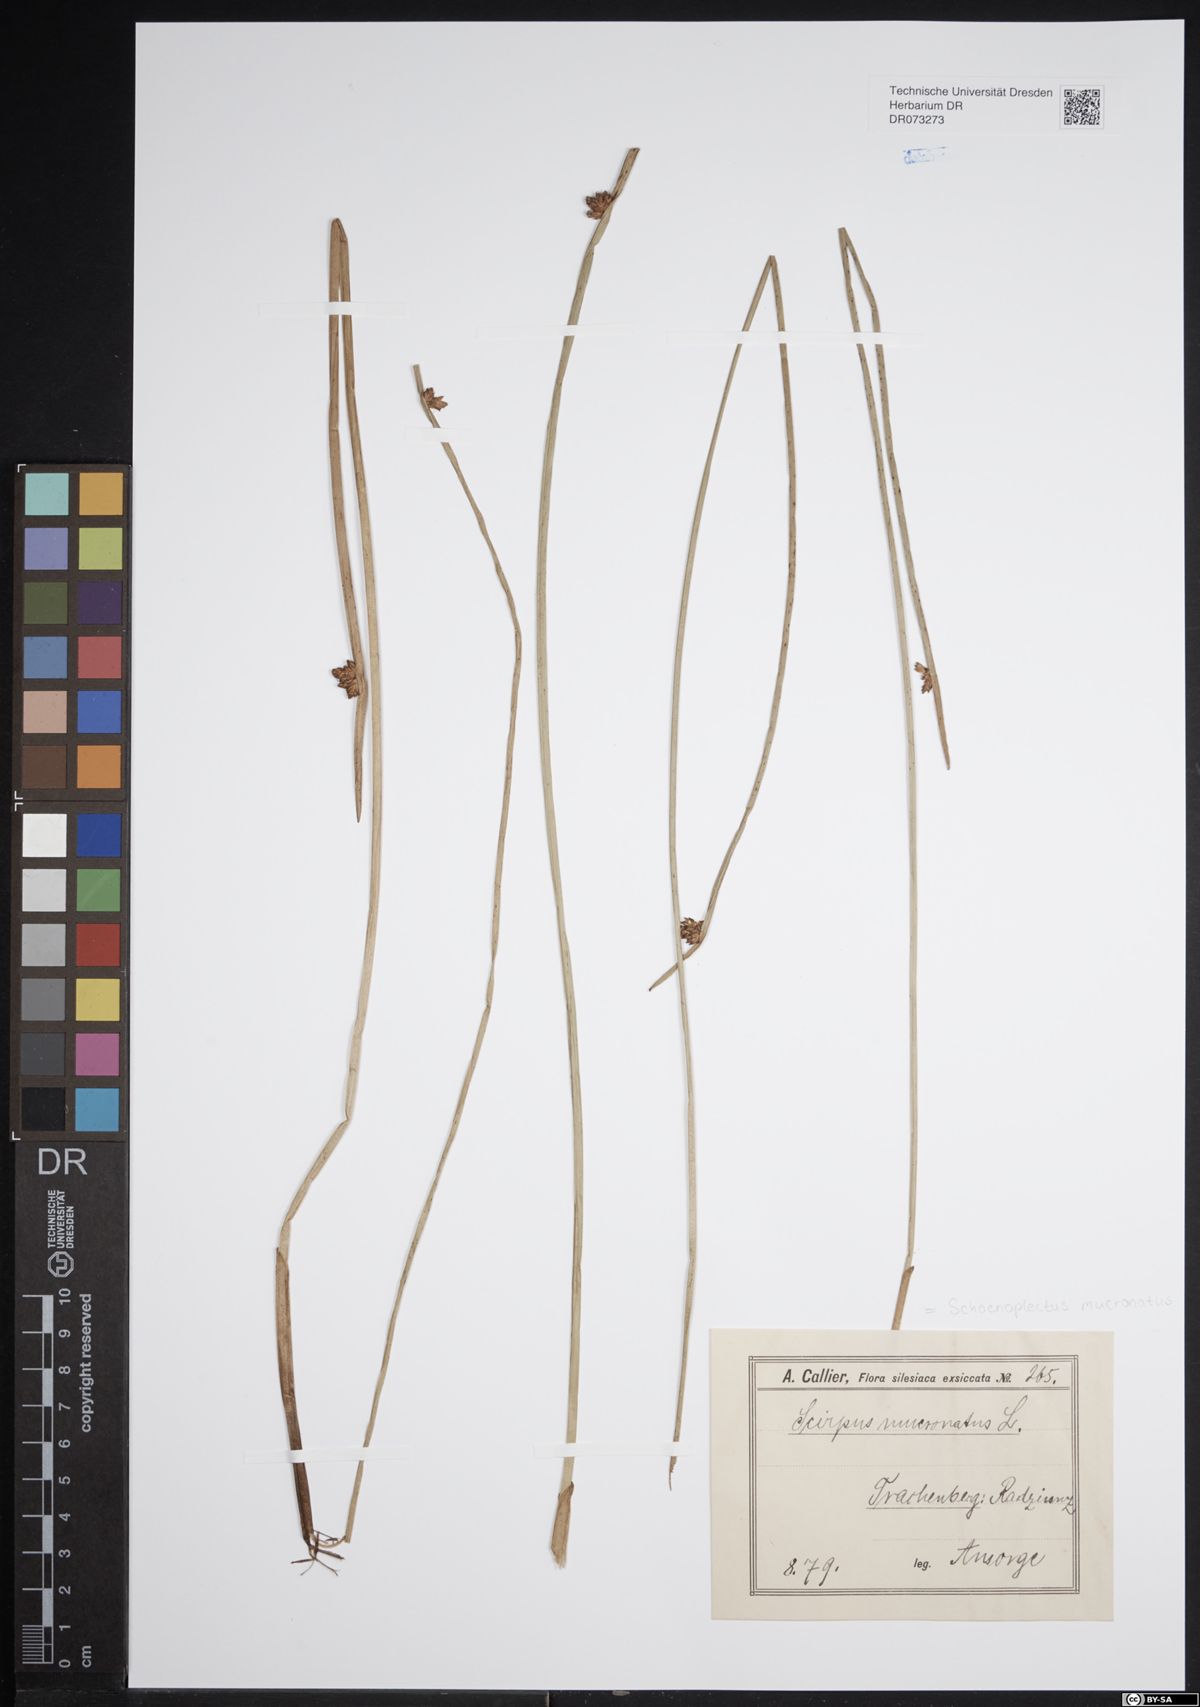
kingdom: Plantae
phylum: Tracheophyta
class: Liliopsida
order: Poales
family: Cyperaceae
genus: Schoenoplectiella
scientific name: Schoenoplectiella mucronata
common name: Bog bulrush
